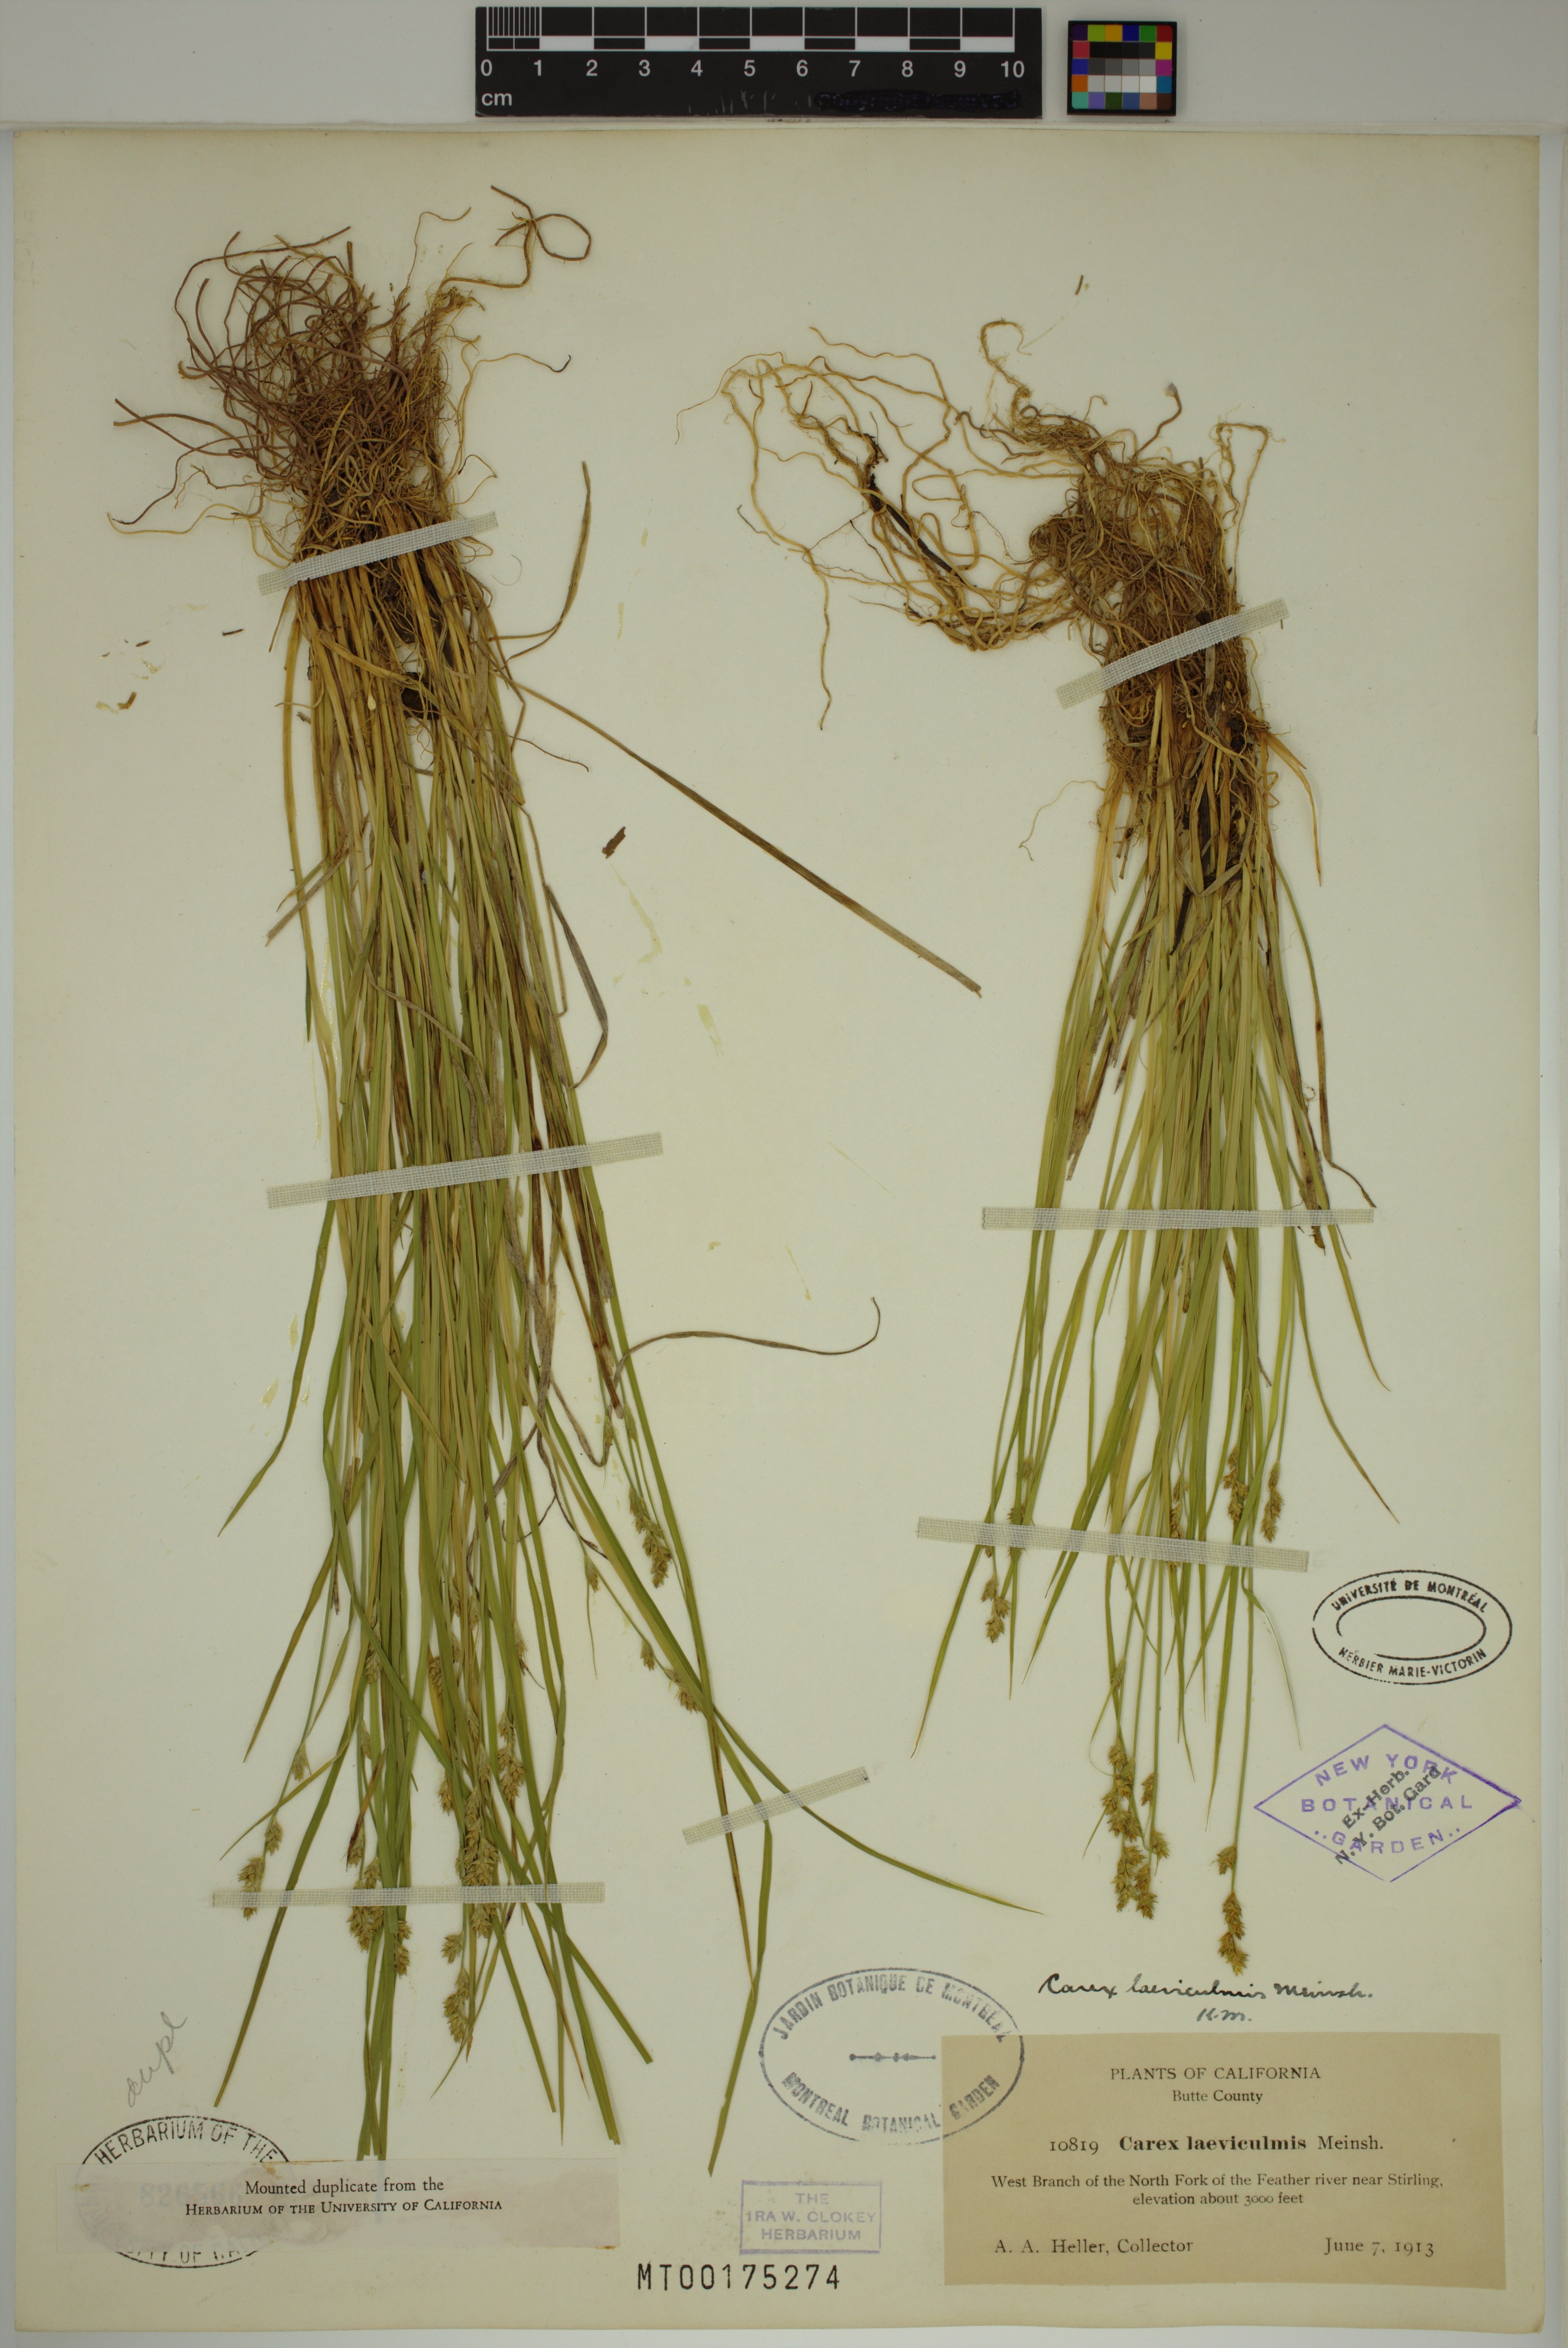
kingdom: Plantae
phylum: Tracheophyta
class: Liliopsida
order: Poales
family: Cyperaceae
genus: Carex
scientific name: Carex laeviculmis
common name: Smooth sedge
